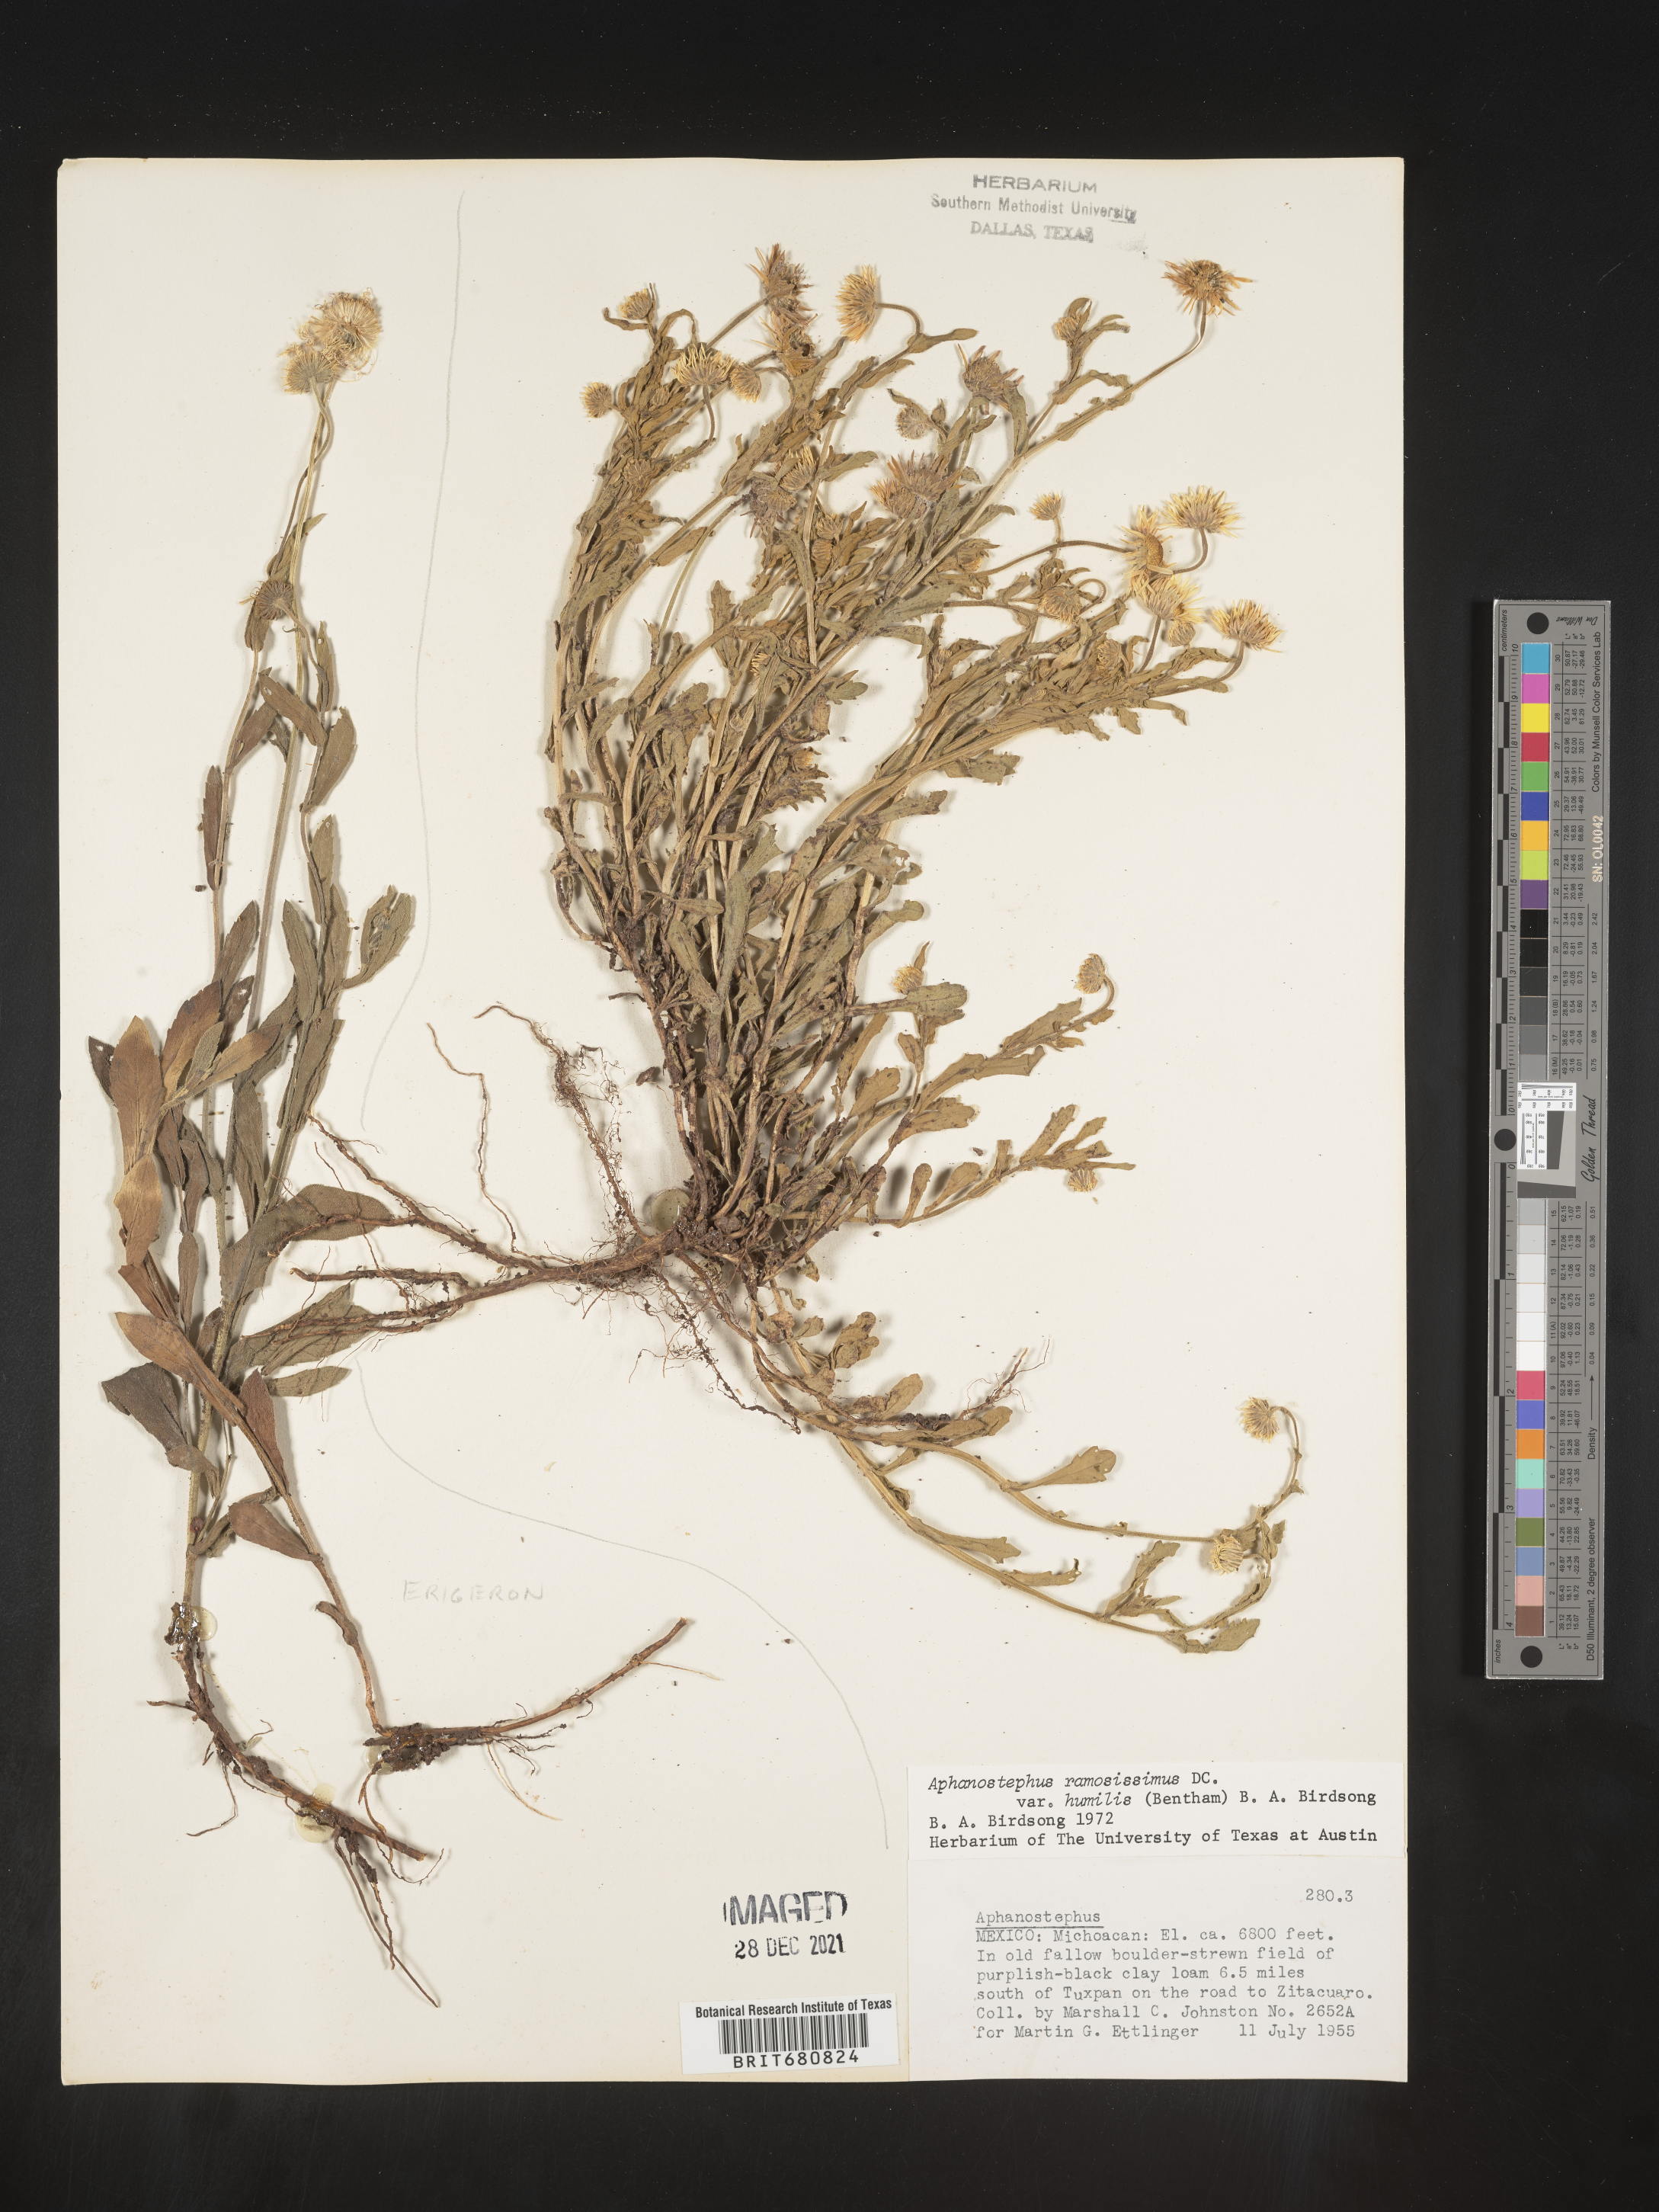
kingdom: Plantae
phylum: Tracheophyta
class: Magnoliopsida
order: Asterales
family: Asteraceae
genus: Aphanostephus
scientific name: Aphanostephus ramosissimus
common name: Plains lazy daisy
